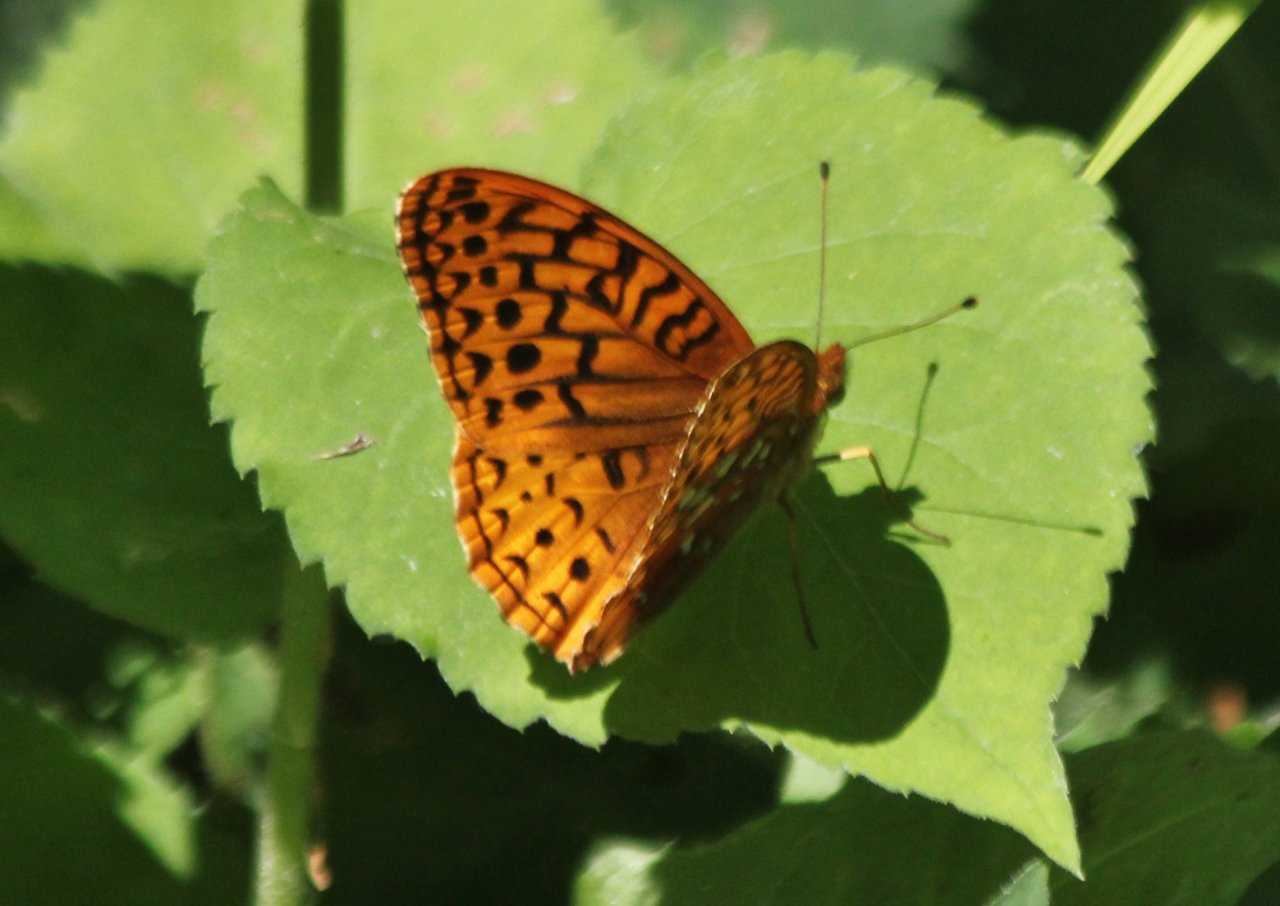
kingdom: Animalia
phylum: Arthropoda
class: Insecta
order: Lepidoptera
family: Nymphalidae
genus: Speyeria
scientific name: Speyeria cybele
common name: Great Spangled Fritillary
